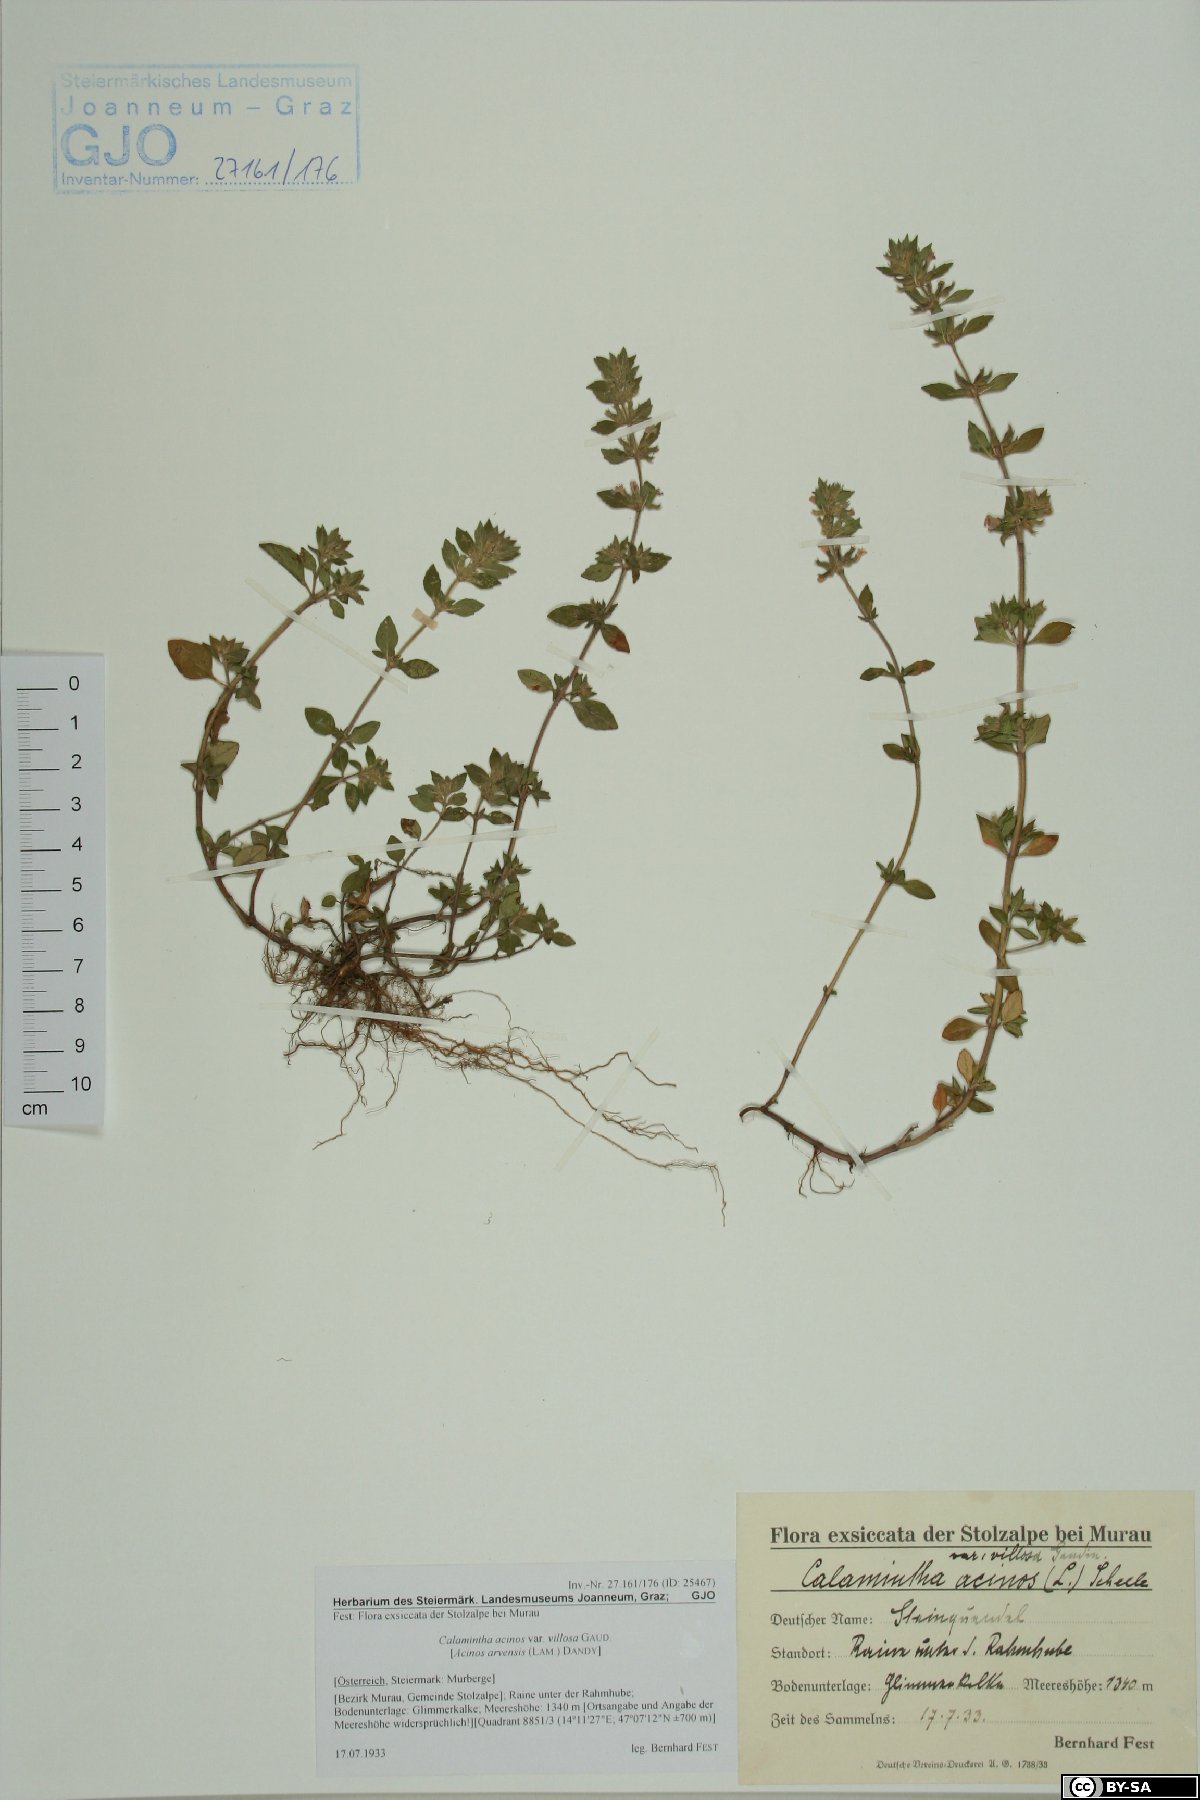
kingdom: Plantae
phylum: Tracheophyta
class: Magnoliopsida
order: Lamiales
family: Lamiaceae
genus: Clinopodium
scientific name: Clinopodium acinos
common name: Basil thyme
